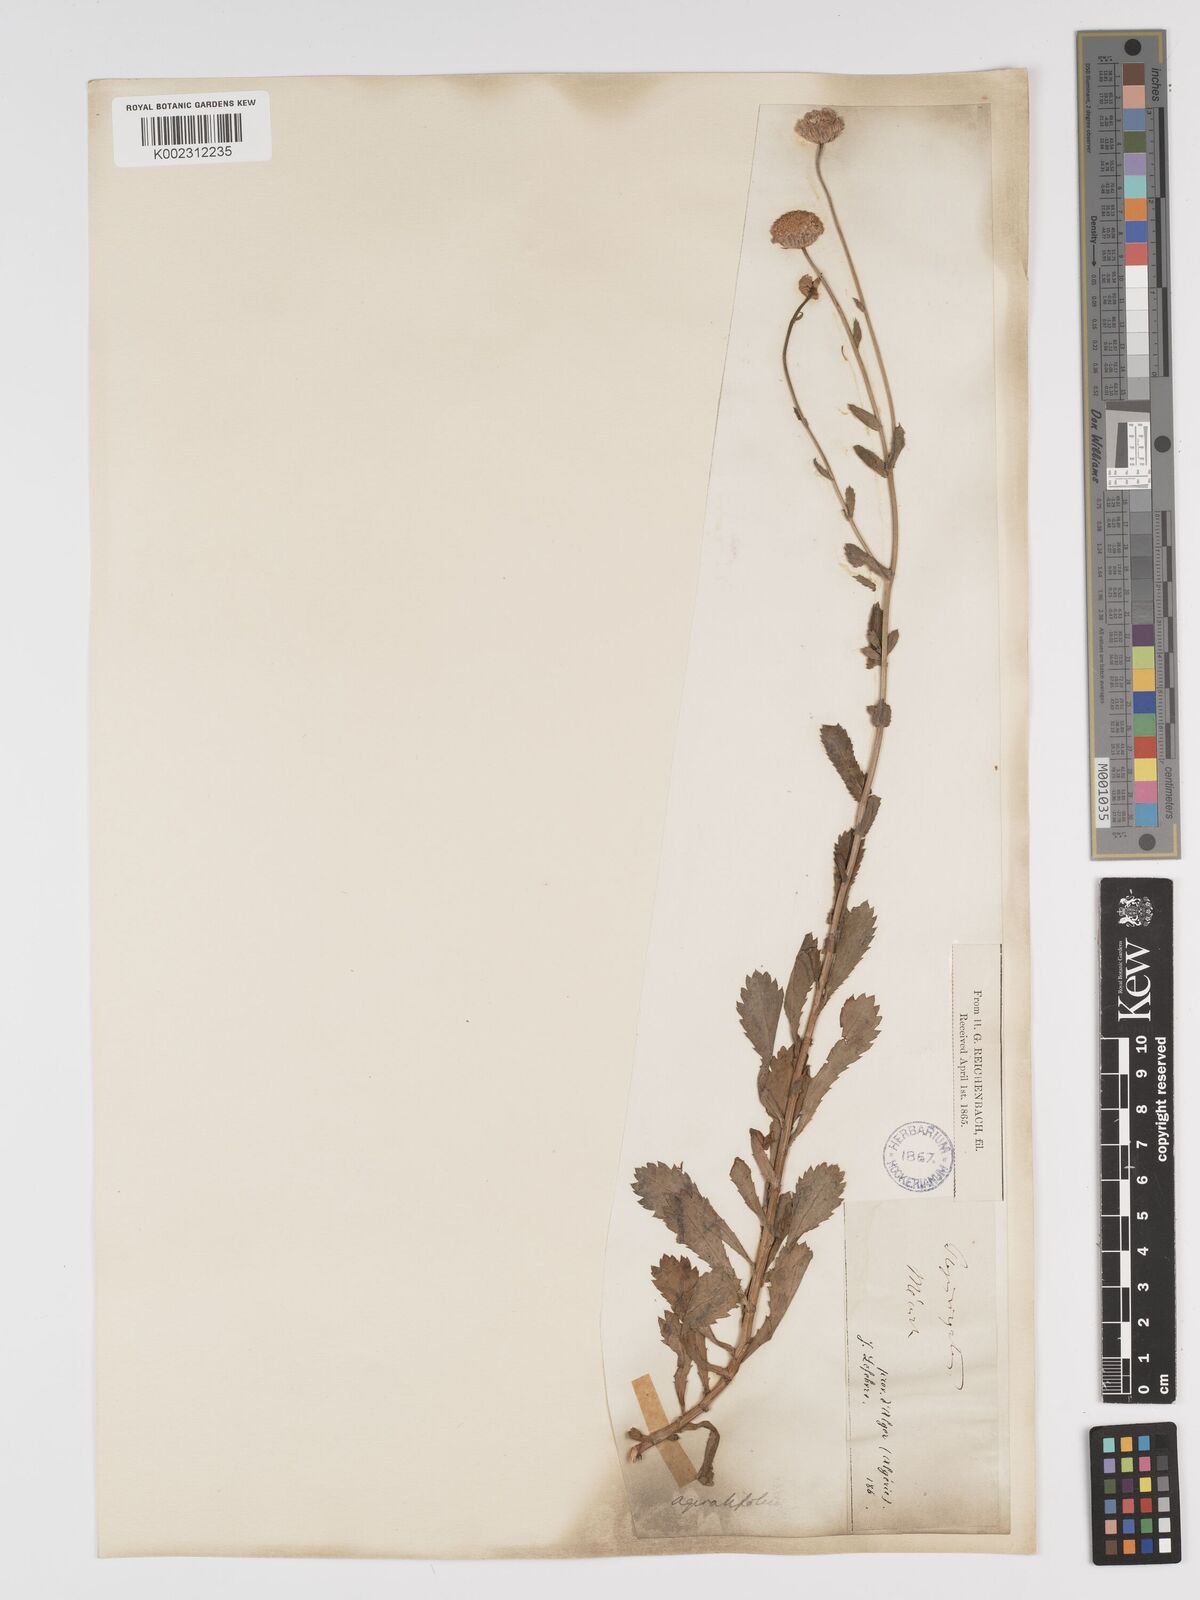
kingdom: Plantae
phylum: Tracheophyta
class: Magnoliopsida
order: Asterales
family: Asteraceae
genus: Tanacetum
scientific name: Tanacetum vulgare
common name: Common tansy
